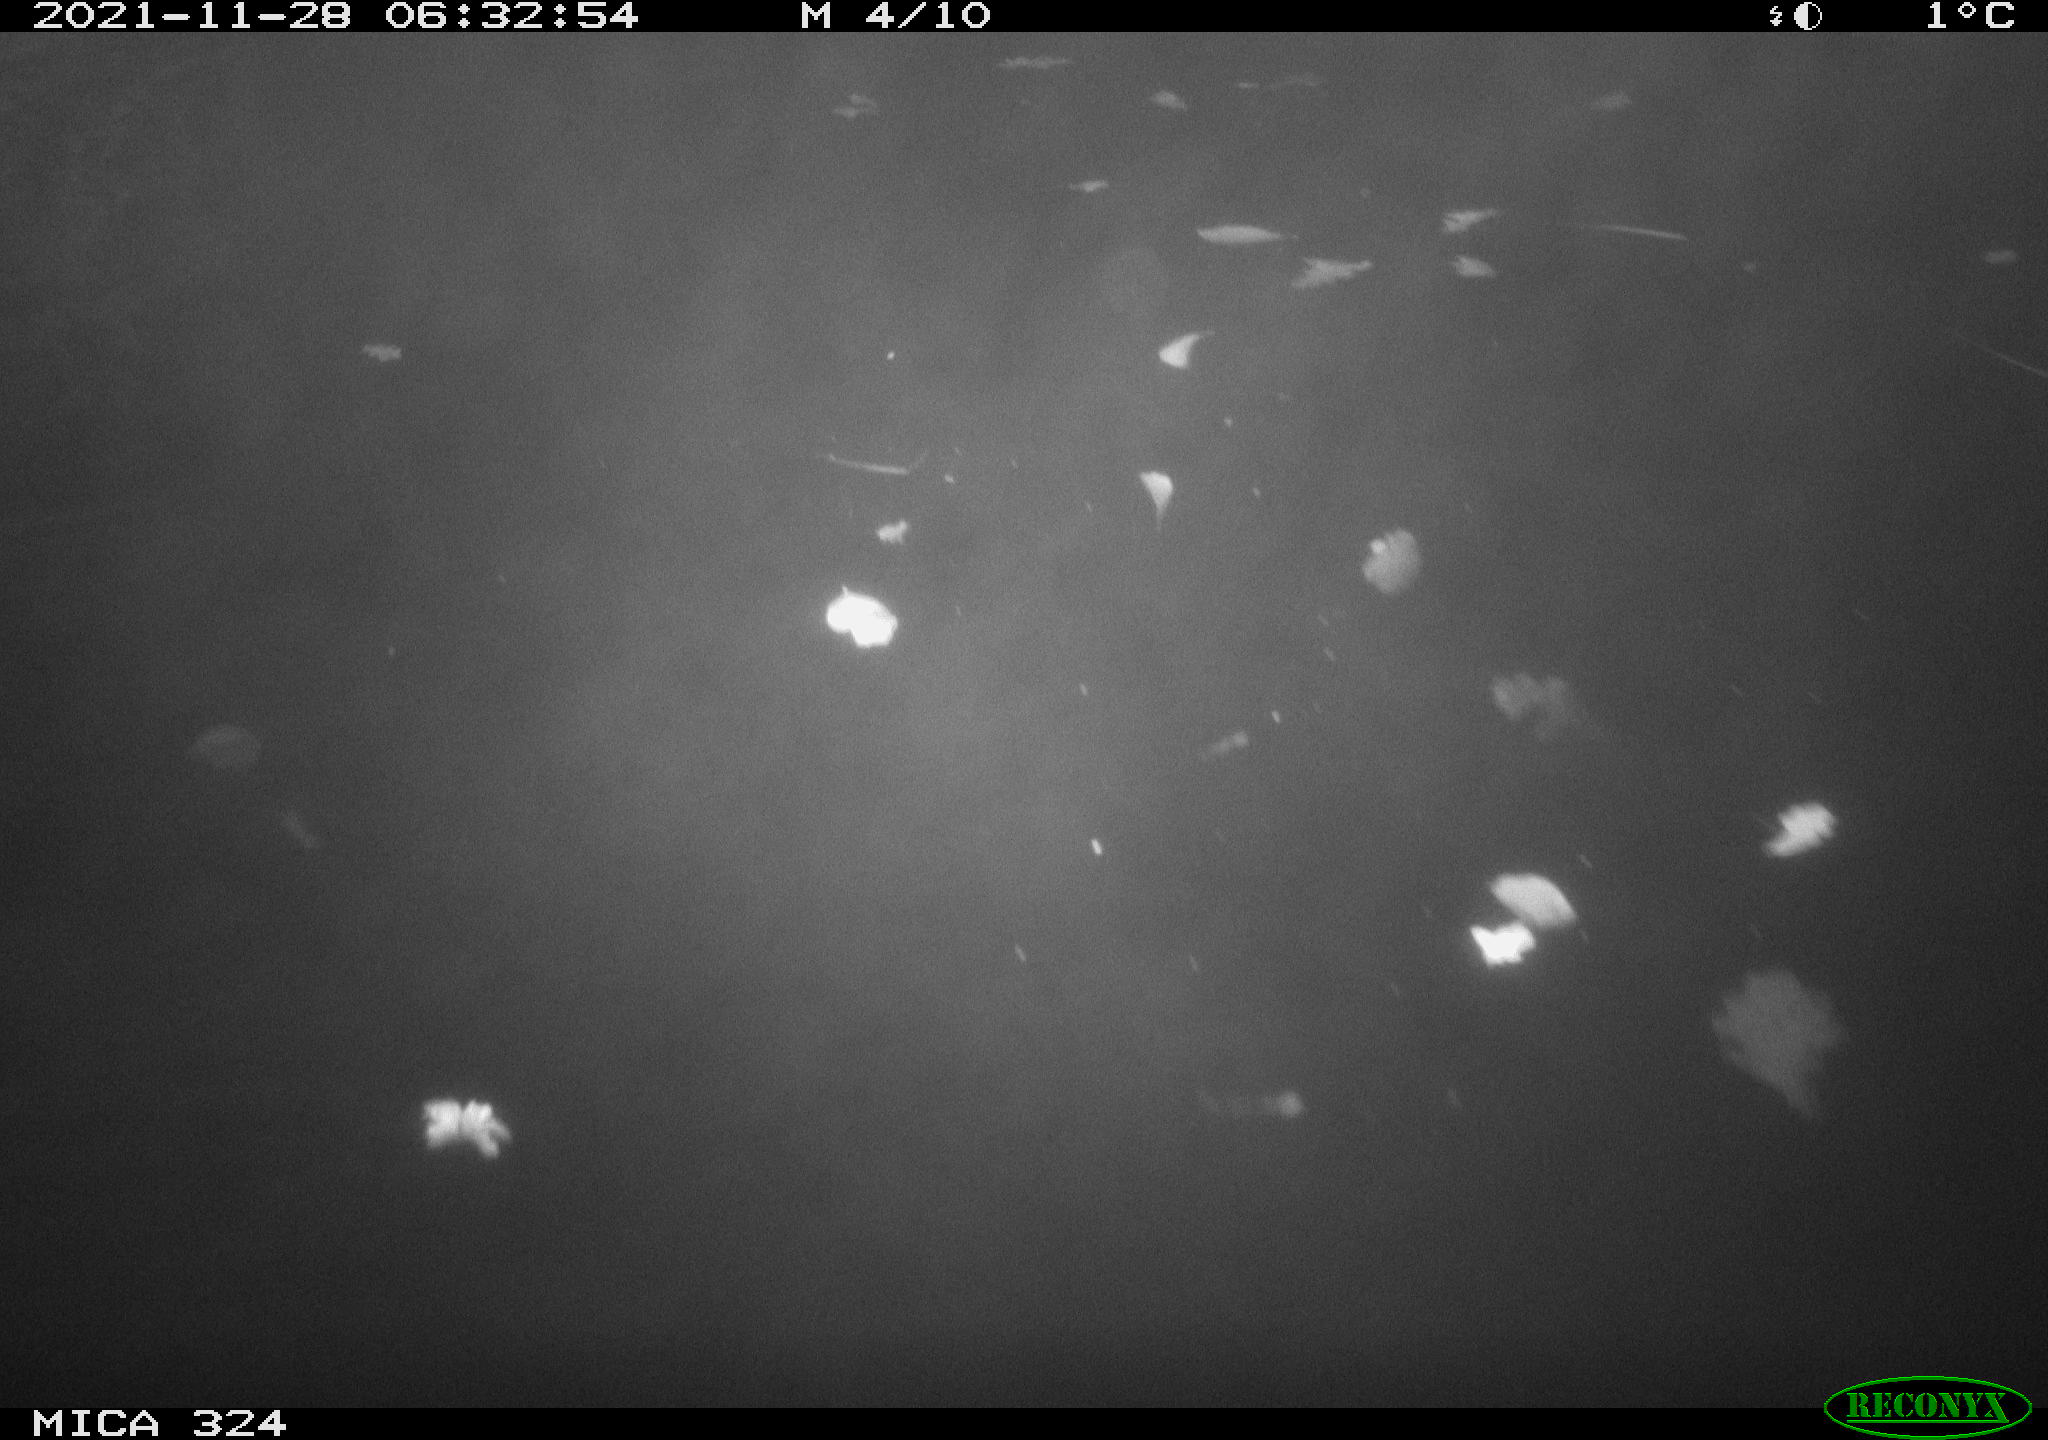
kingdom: Animalia
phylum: Chordata
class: Mammalia
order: Rodentia
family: Cricetidae
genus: Ondatra
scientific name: Ondatra zibethicus
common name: Muskrat
